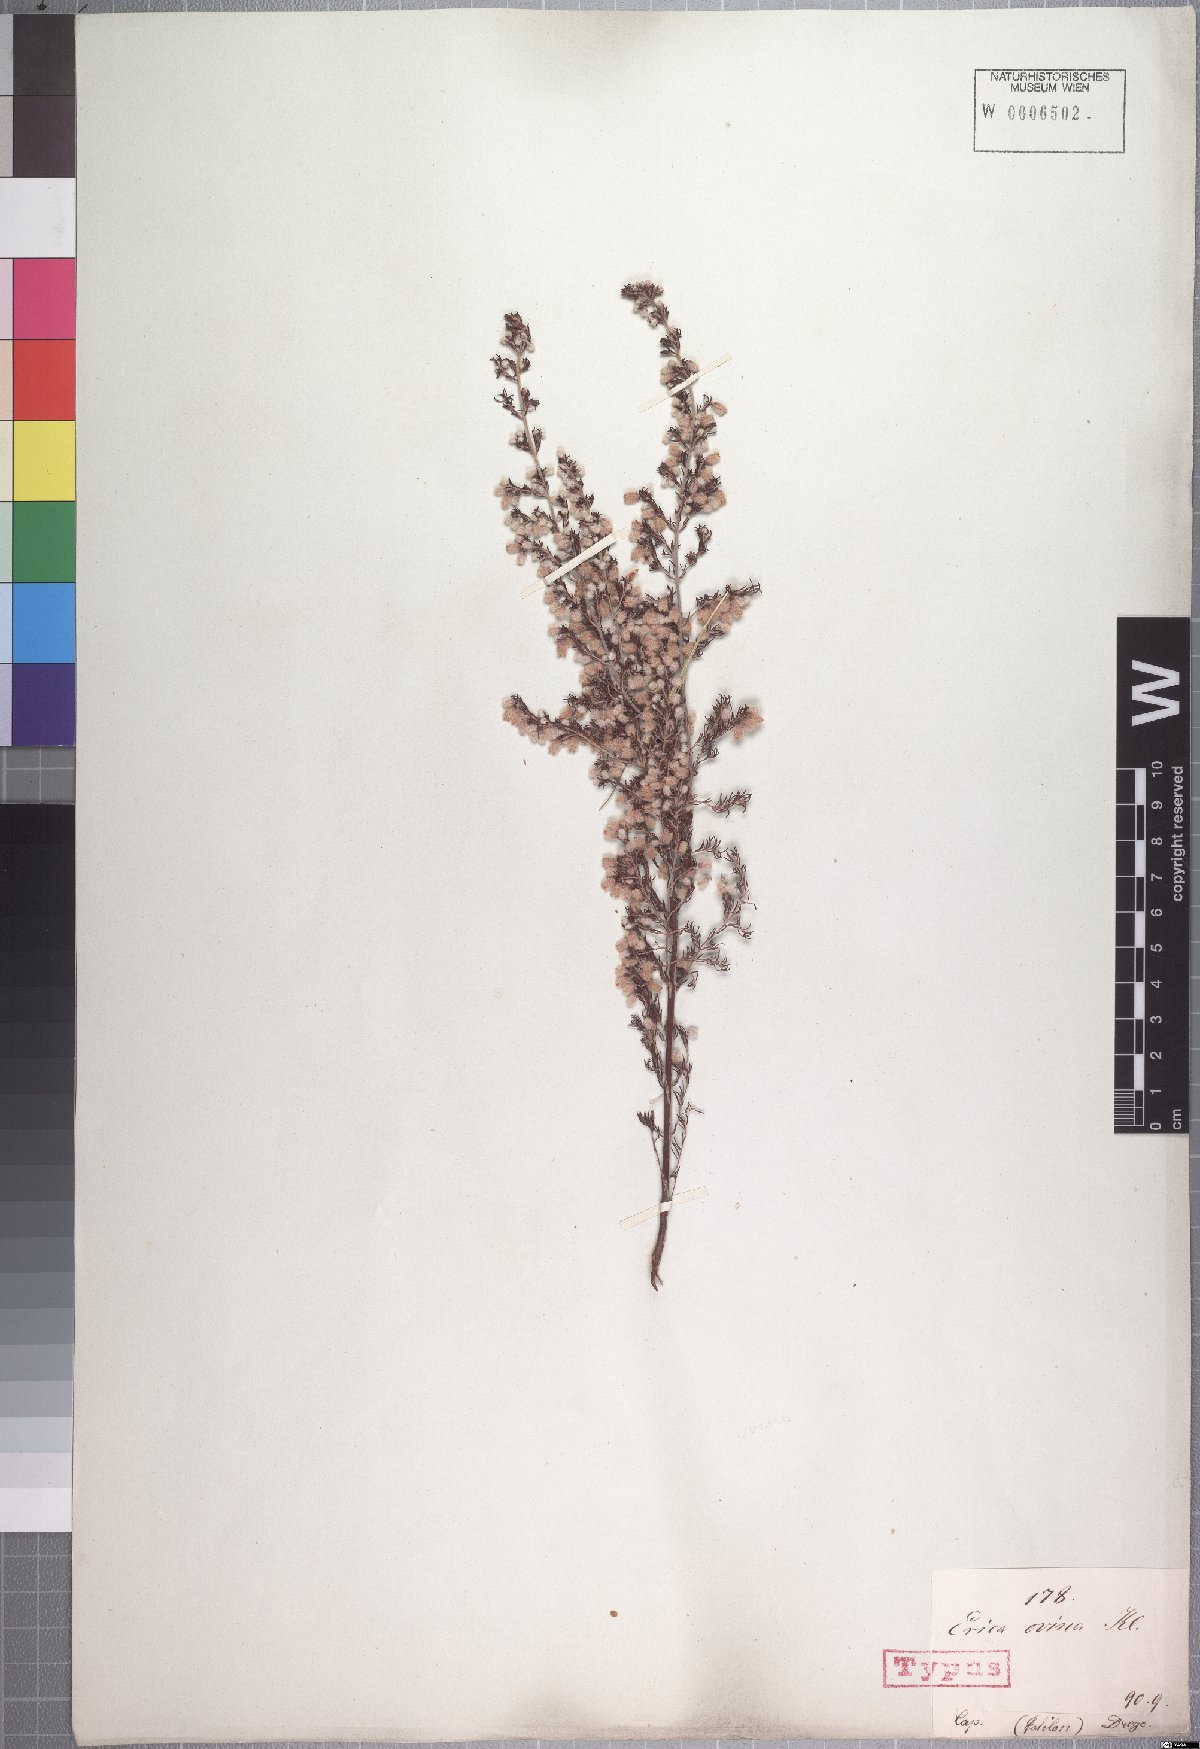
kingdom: Plantae
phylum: Tracheophyta
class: Magnoliopsida
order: Ericales
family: Ericaceae
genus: Erica
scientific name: Erica ovina
